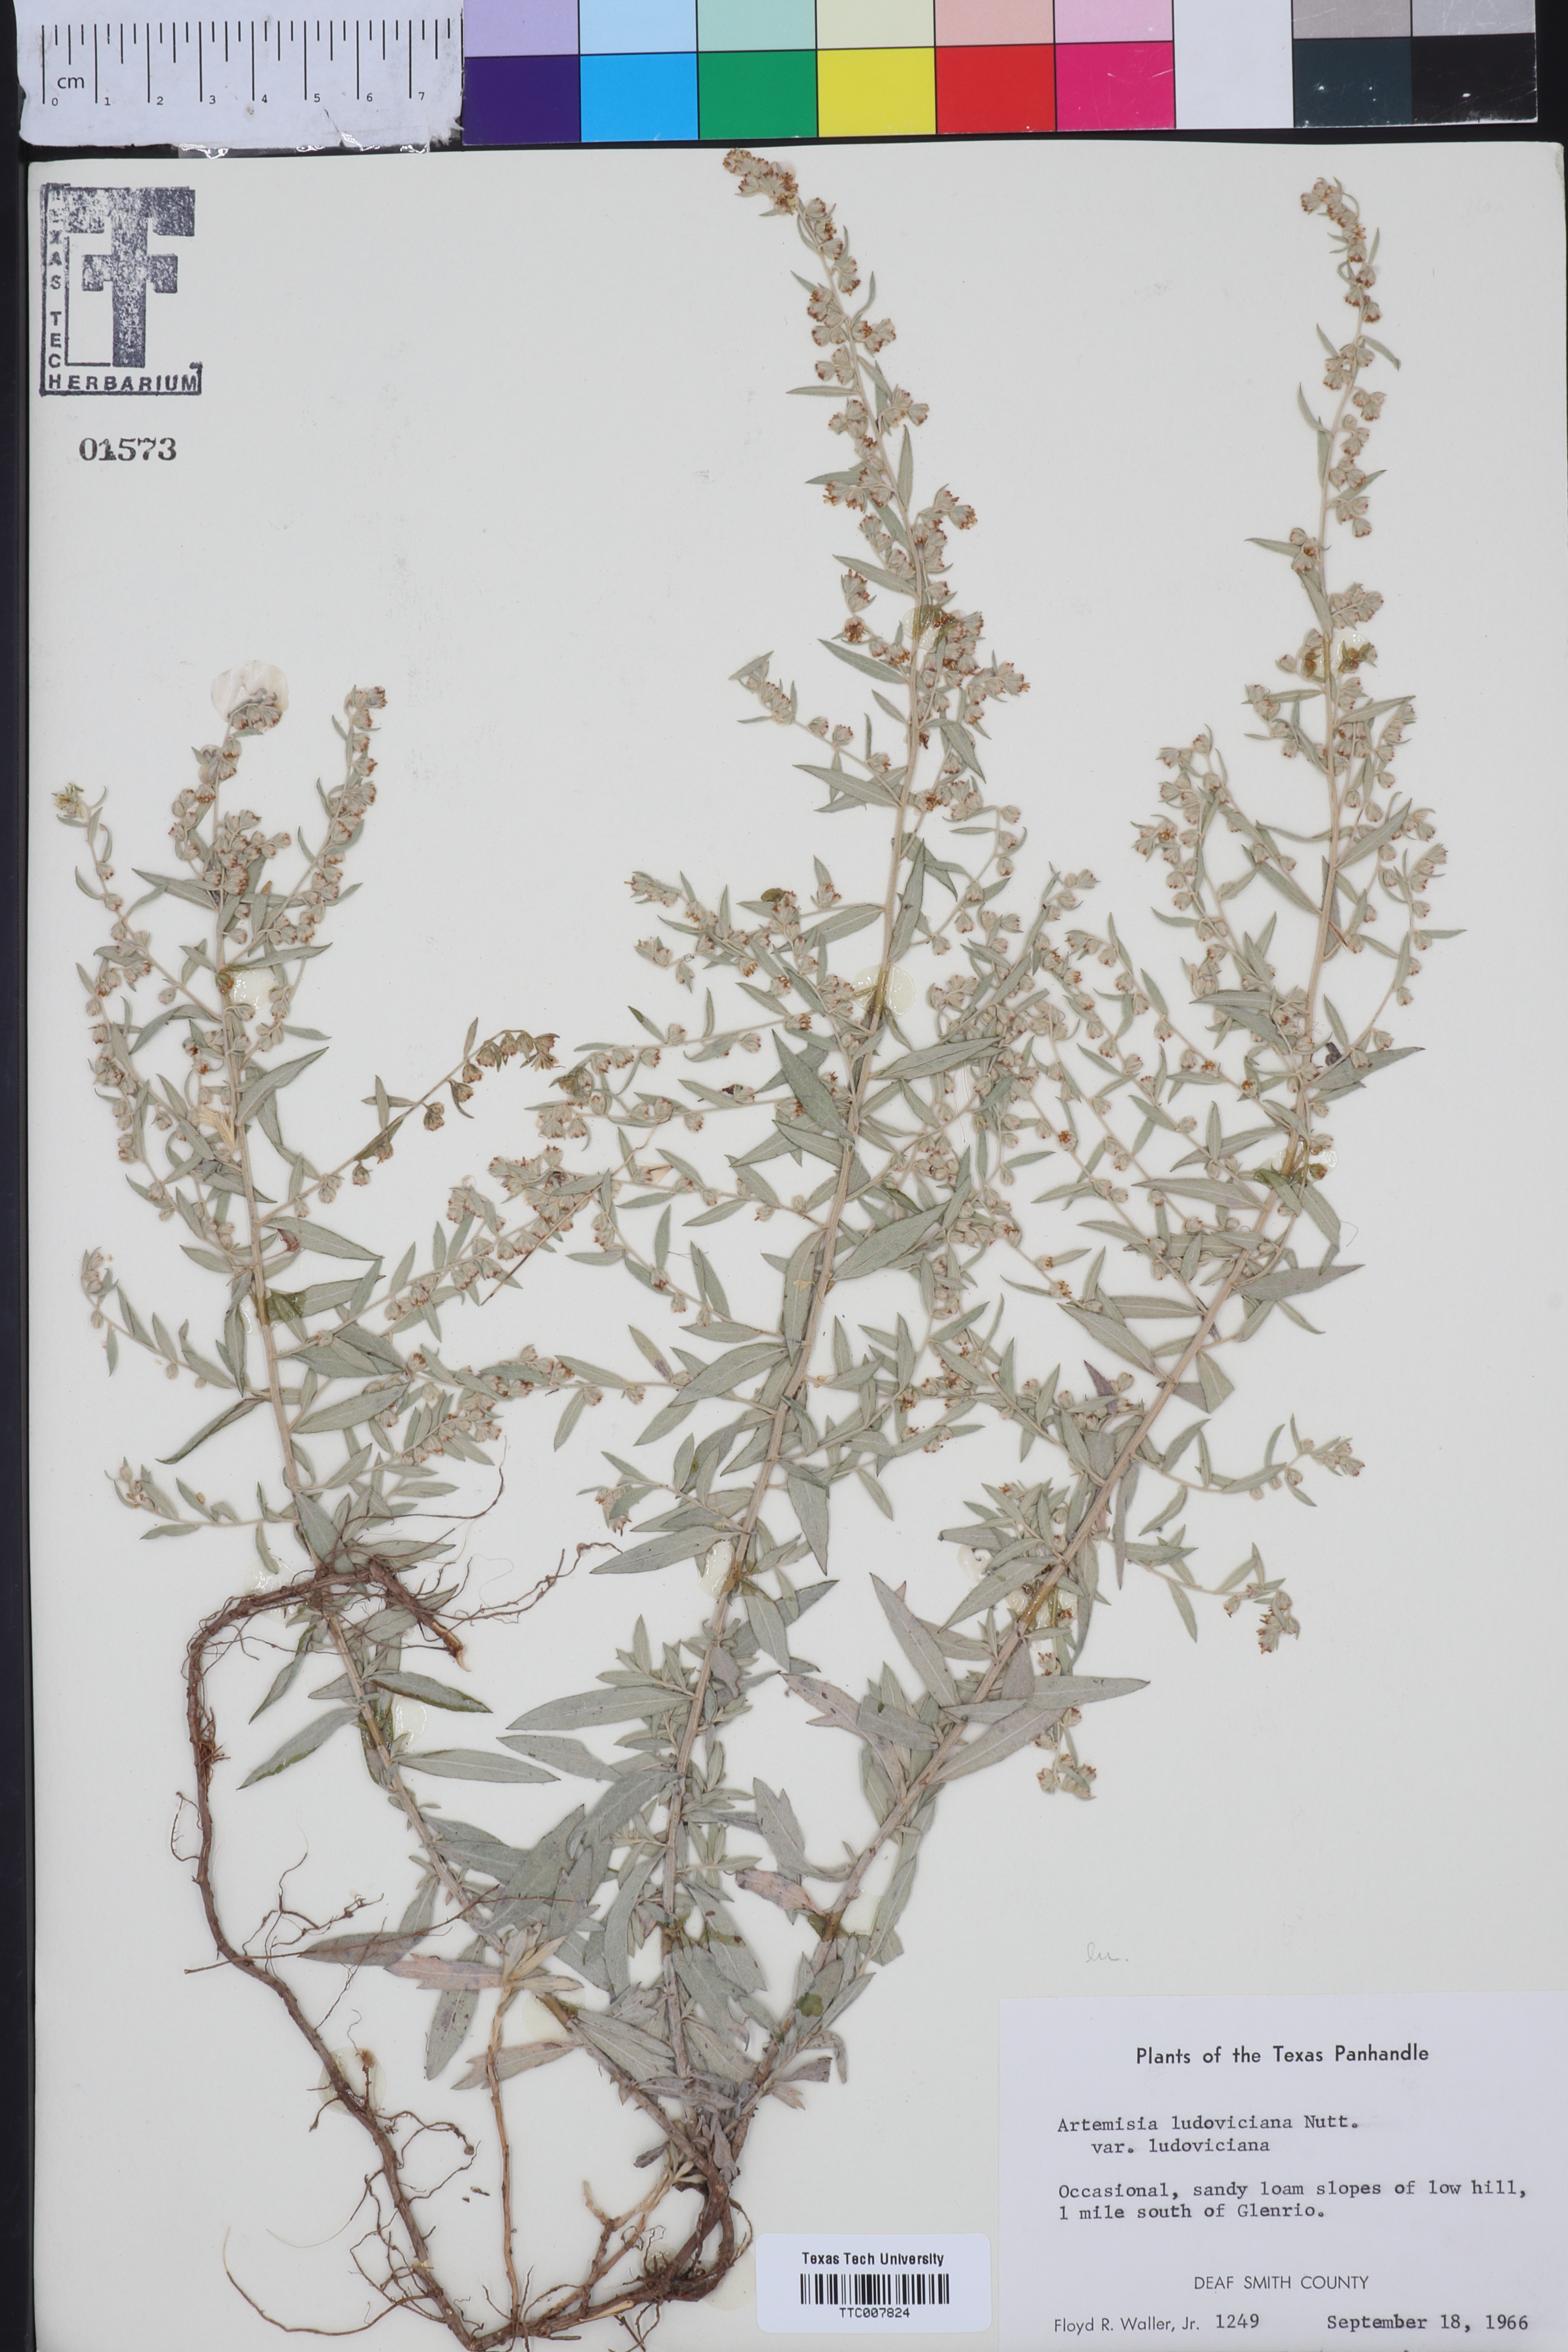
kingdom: Plantae
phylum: Tracheophyta
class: Magnoliopsida
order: Asterales
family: Asteraceae
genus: Artemisia
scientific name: Artemisia ludoviciana
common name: Western mugwort
